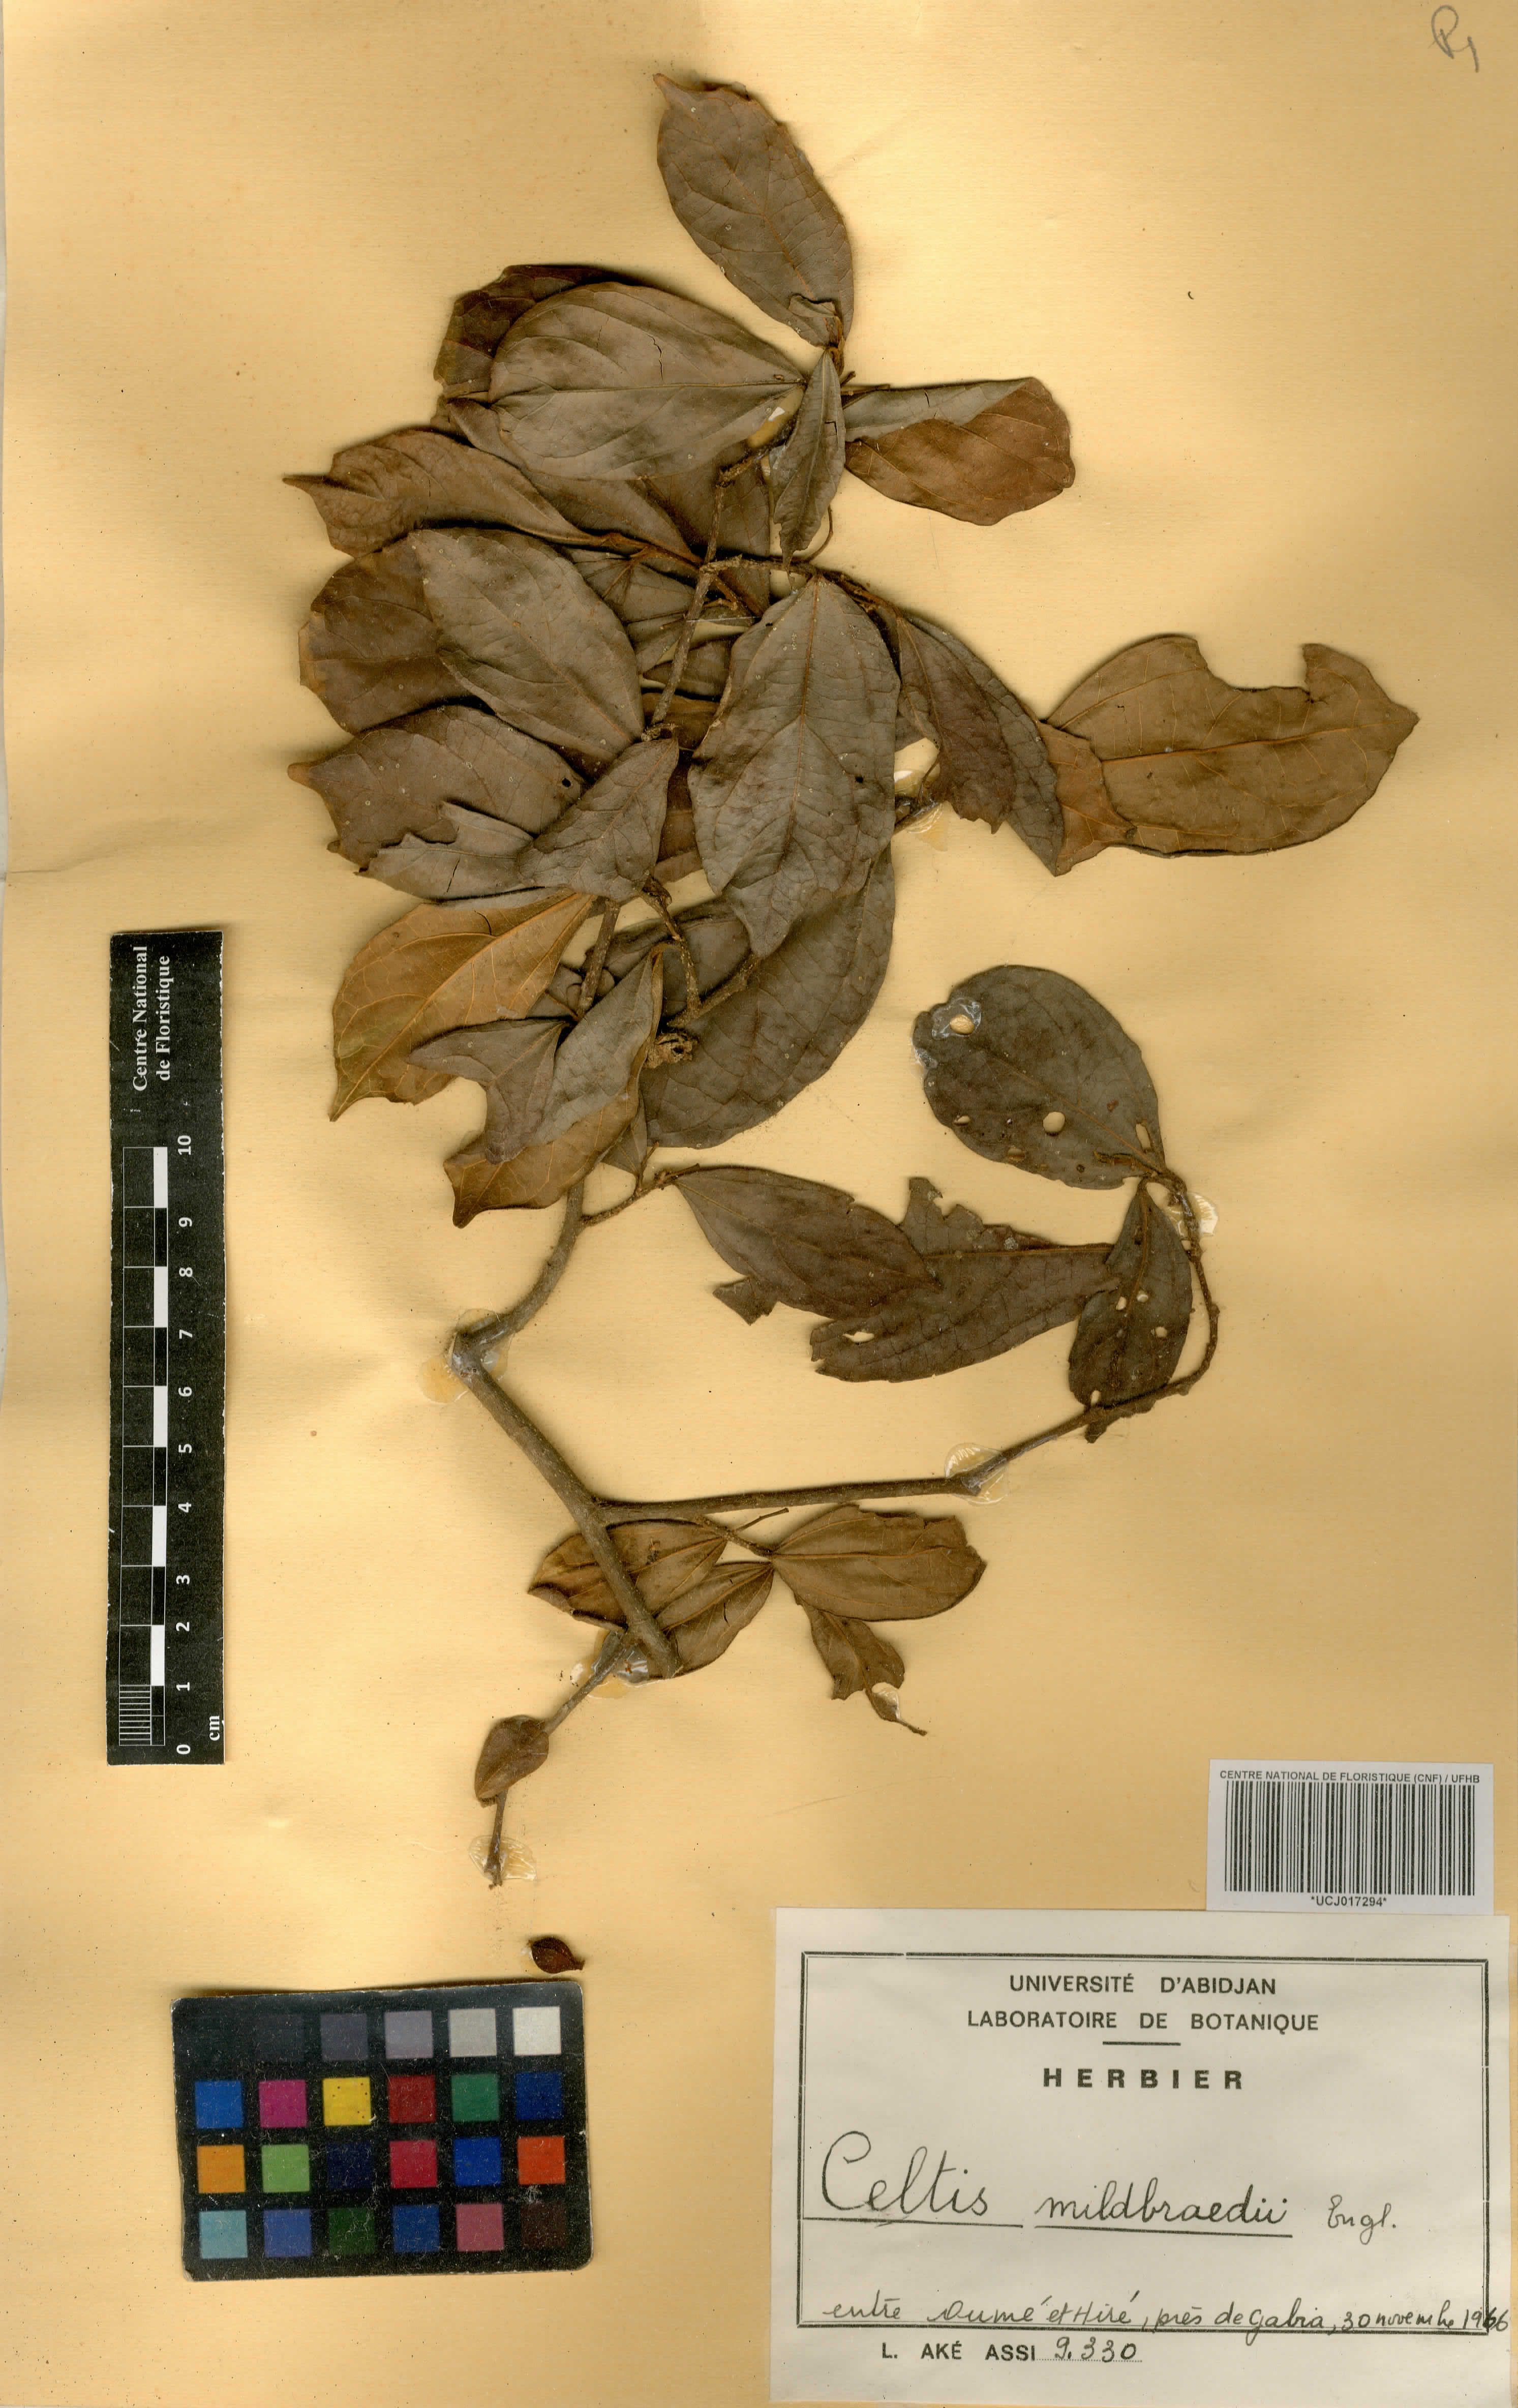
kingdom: Plantae
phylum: Tracheophyta
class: Magnoliopsida
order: Rosales
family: Cannabaceae
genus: Celtis
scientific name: Celtis mildbraedii
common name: Red-fruited stinkwood
